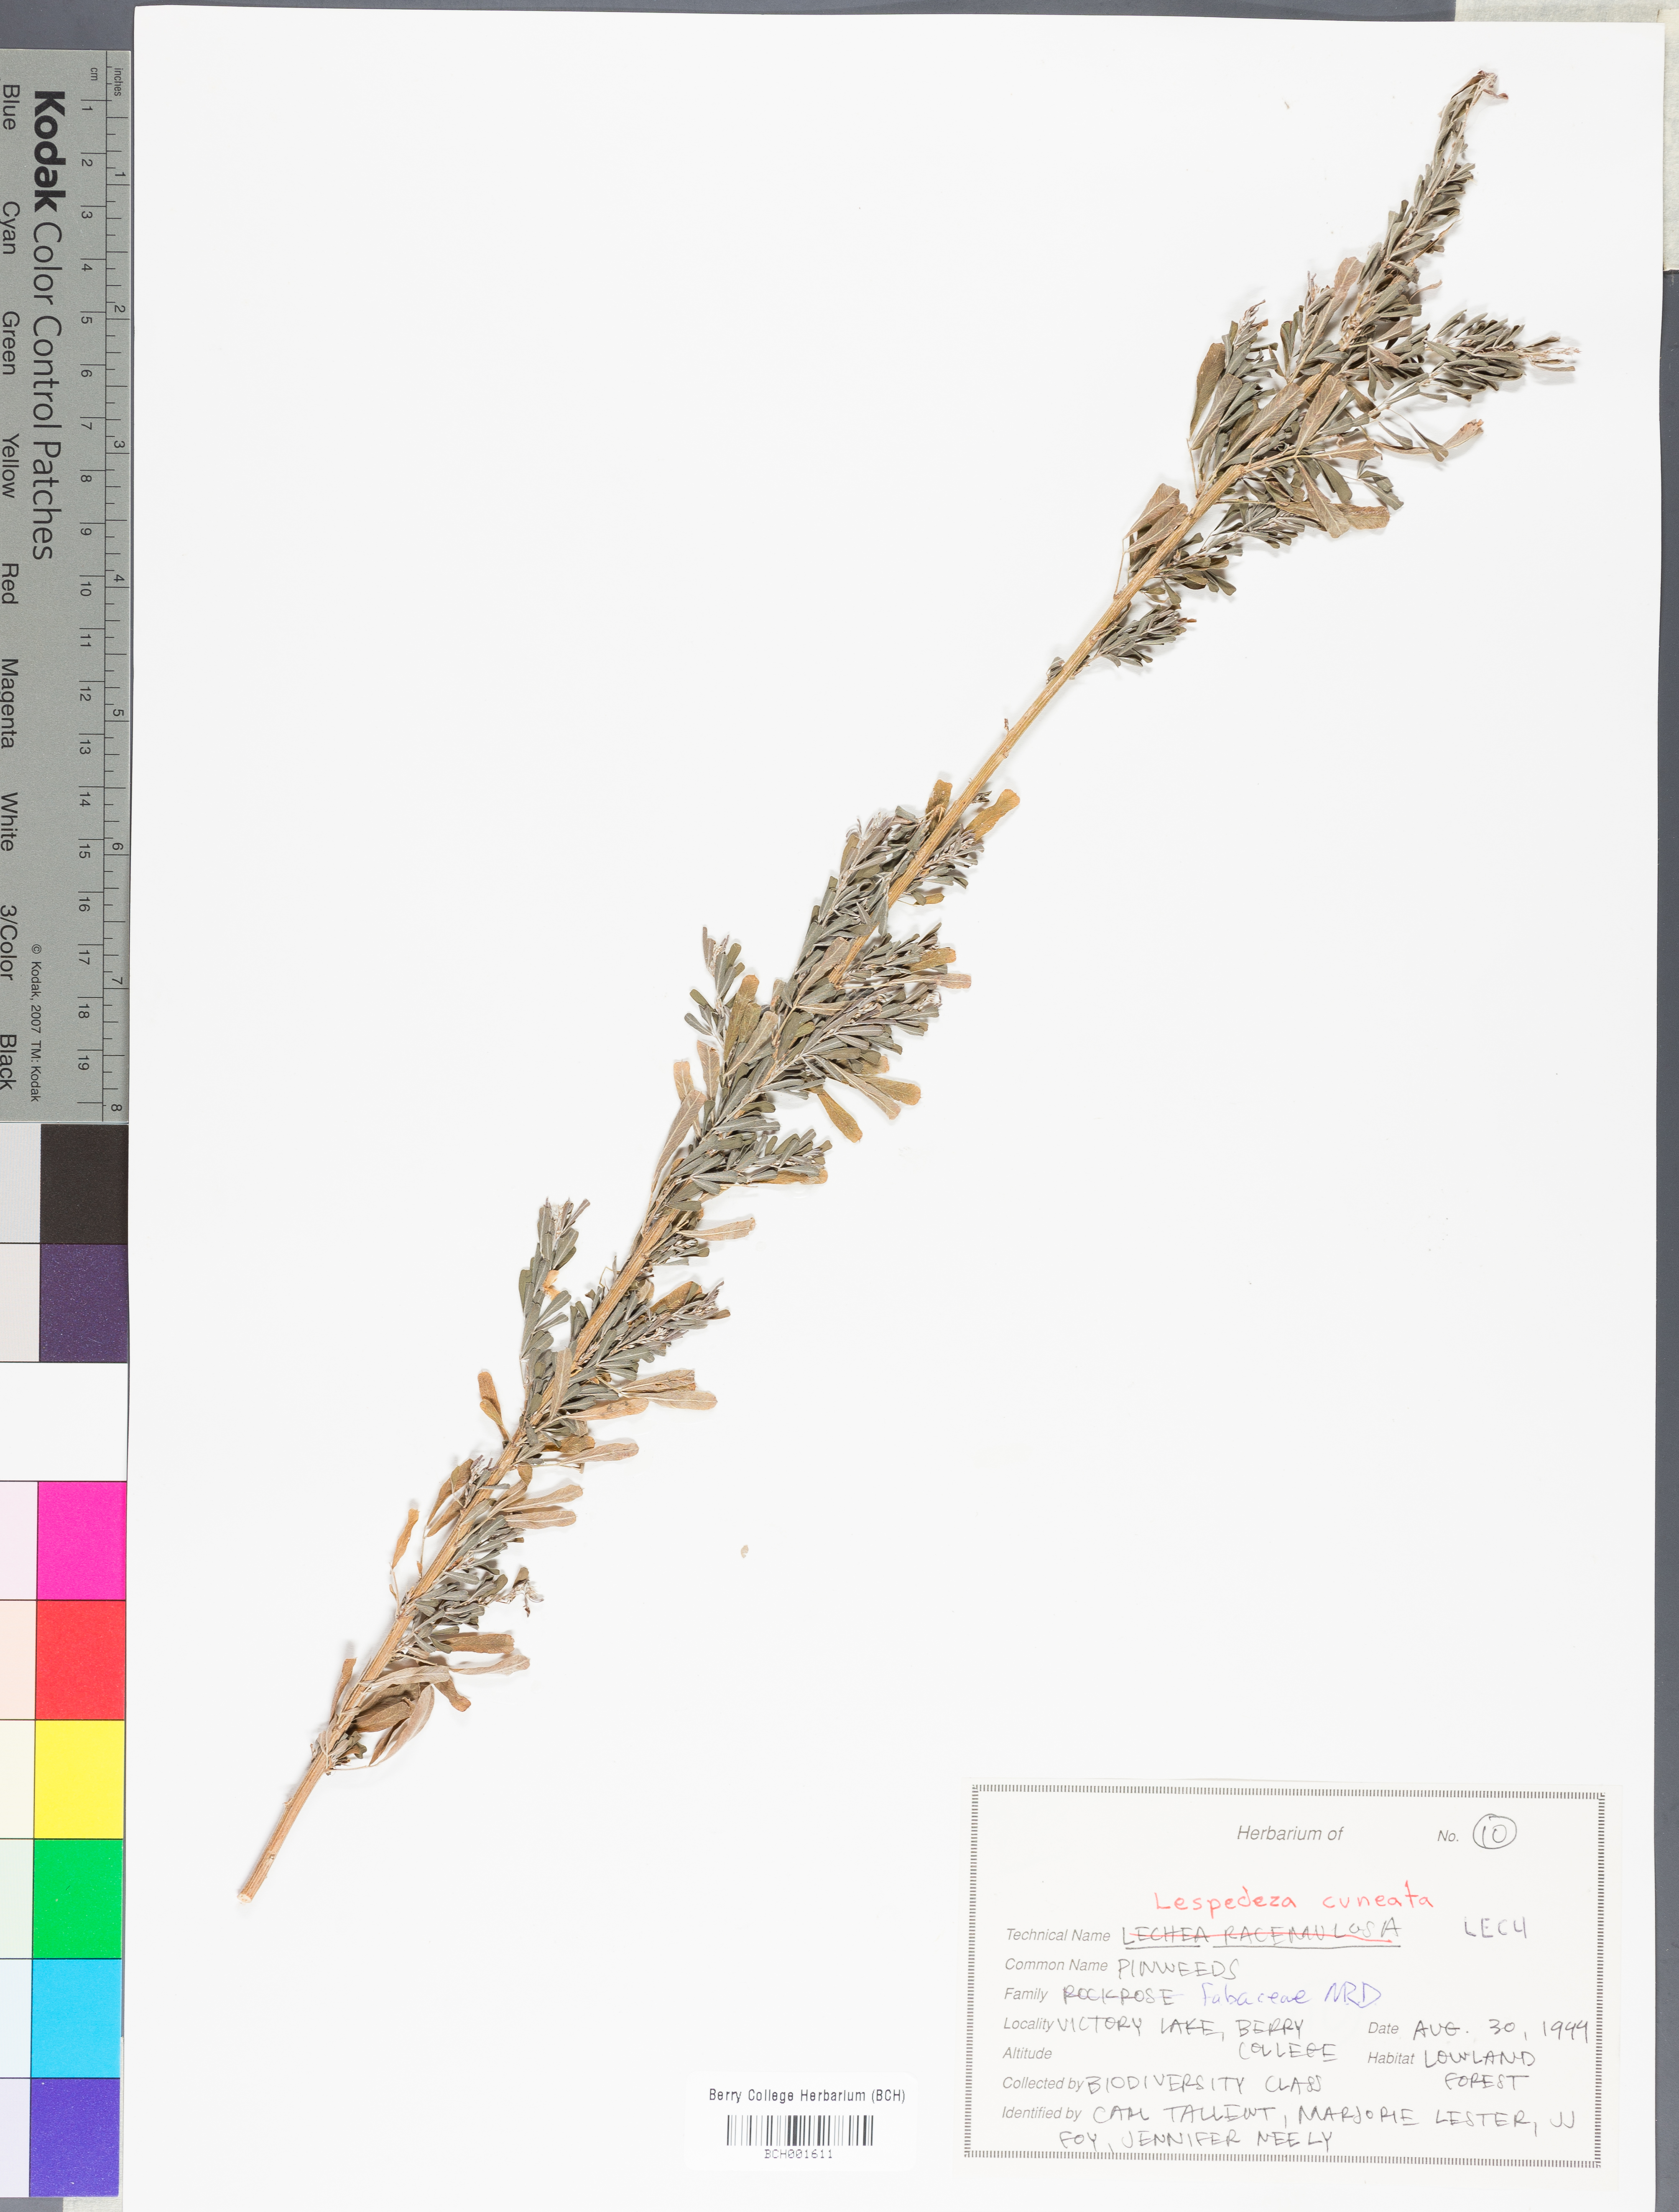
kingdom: Plantae
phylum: Tracheophyta
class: Magnoliopsida
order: Fabales
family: Fabaceae
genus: Lespedeza
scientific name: Lespedeza cuneata
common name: Chinese bush-clover
